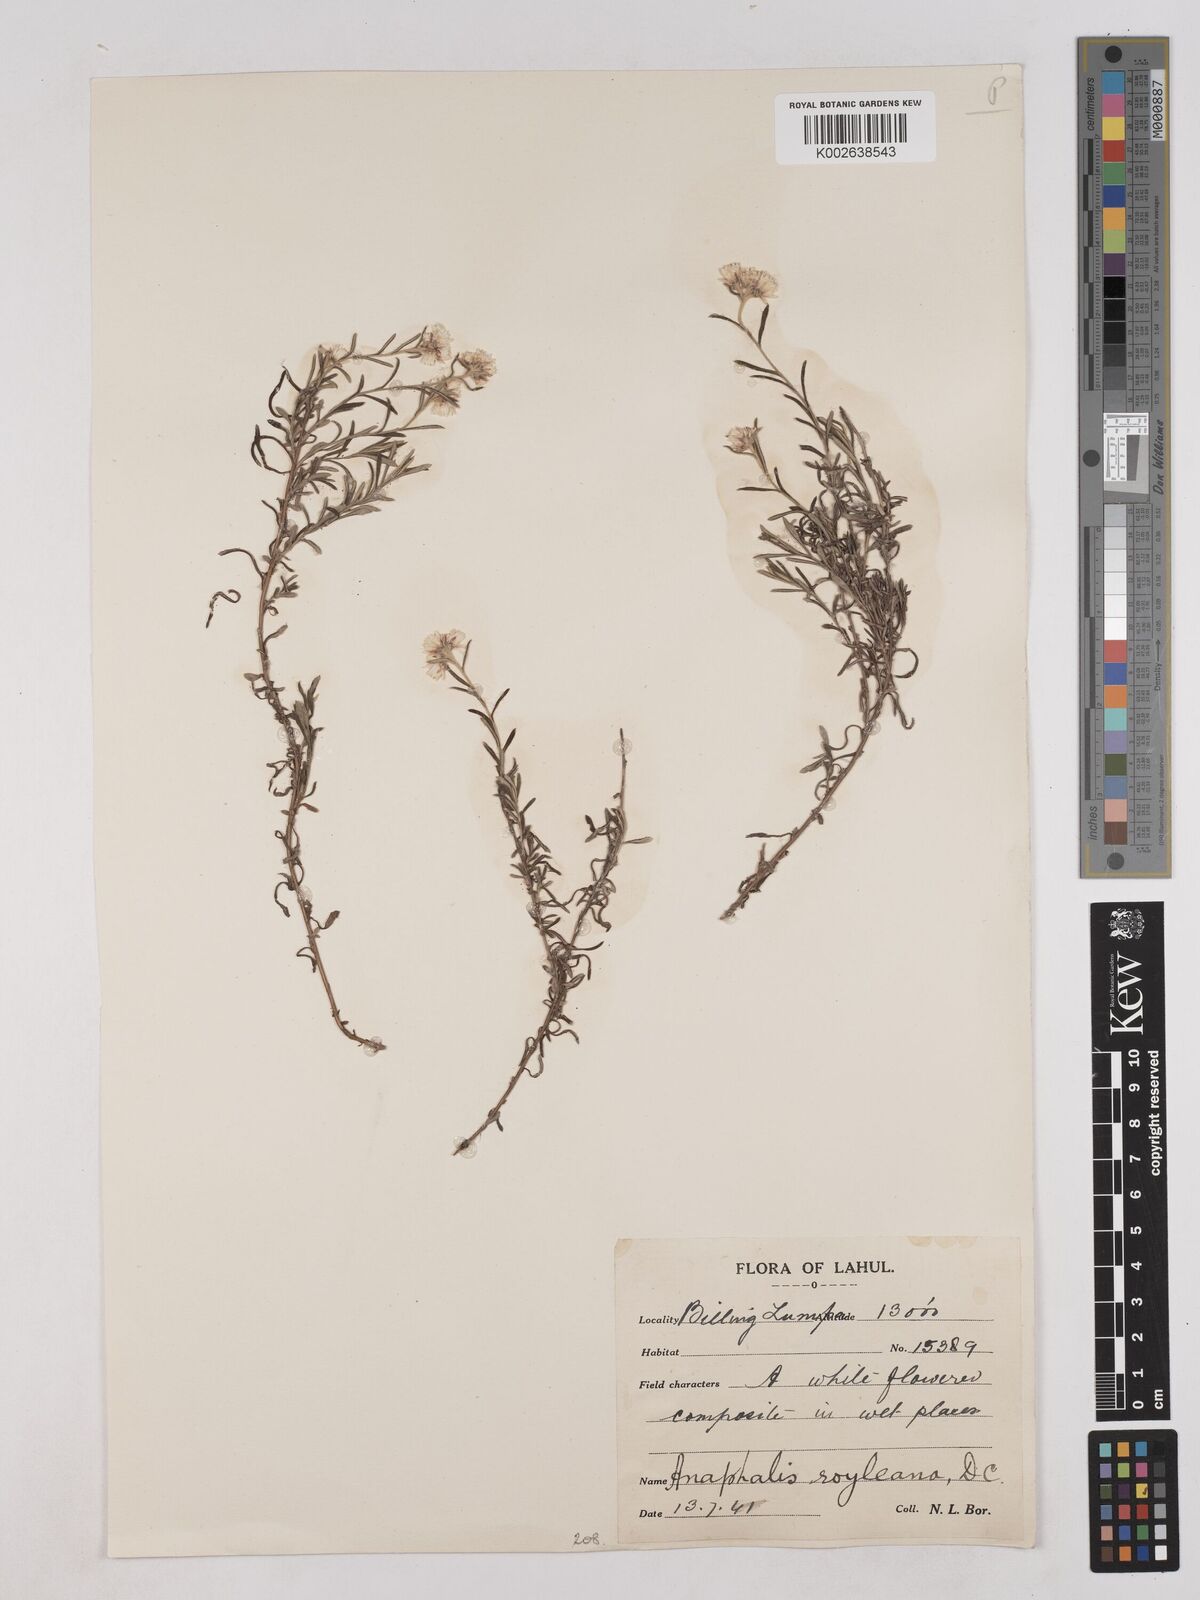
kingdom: Plantae
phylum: Tracheophyta
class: Magnoliopsida
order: Asterales
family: Asteraceae
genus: Anaphalis
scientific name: Anaphalis royleana
